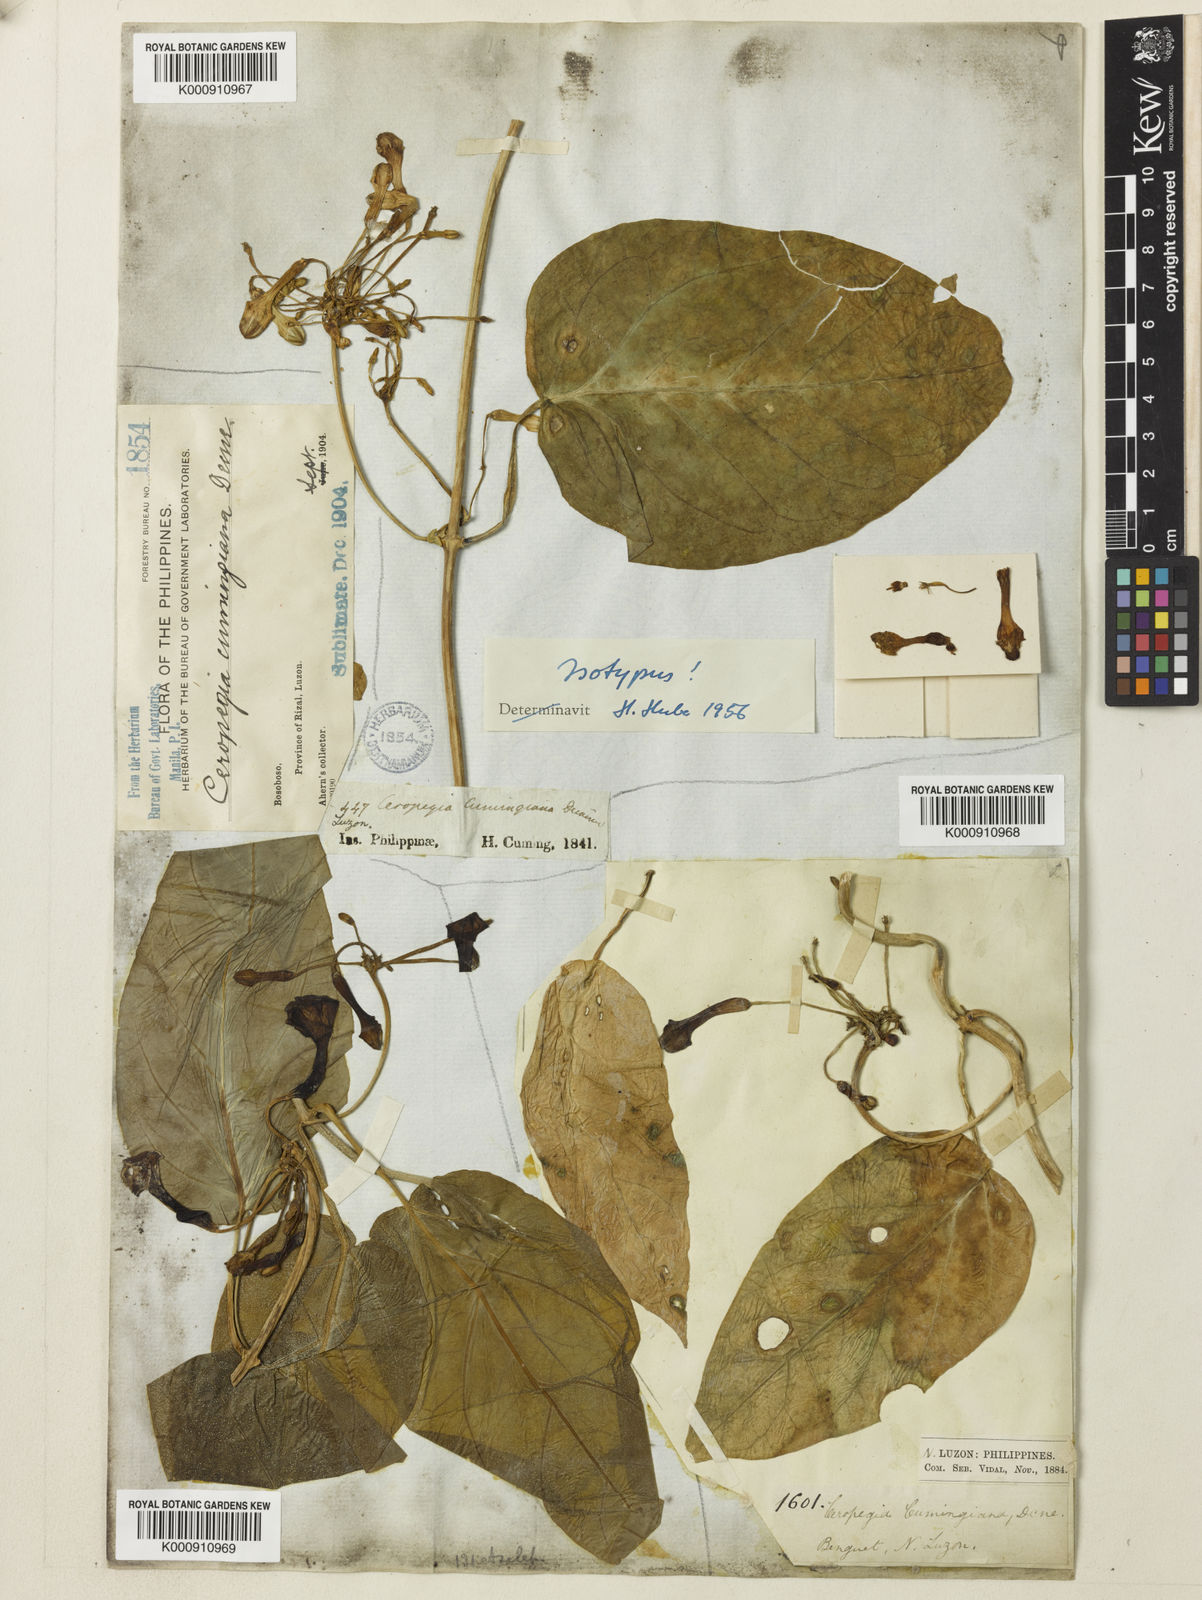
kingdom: Plantae
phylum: Tracheophyta
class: Magnoliopsida
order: Gentianales
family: Apocynaceae
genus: Ceropegia
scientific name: Ceropegia cumingiana
